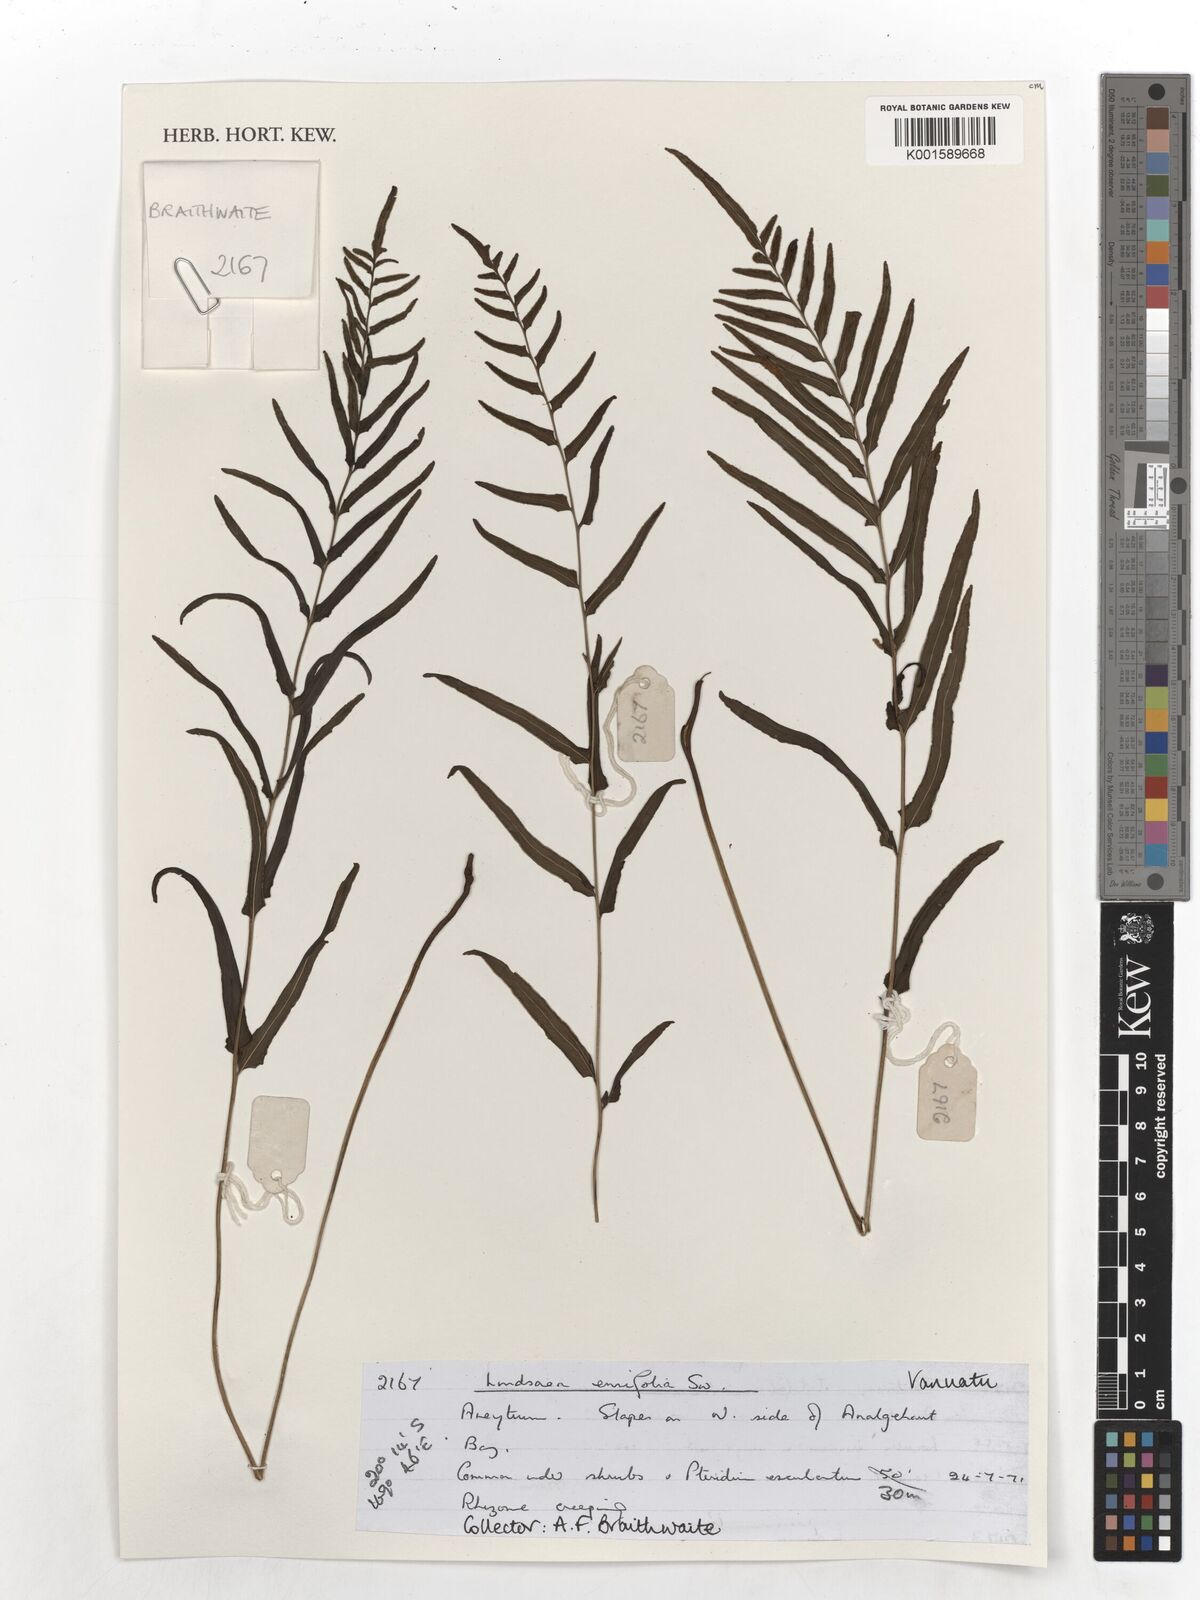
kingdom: Plantae
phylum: Tracheophyta
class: Polypodiopsida
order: Polypodiales
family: Lindsaeaceae
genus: Lindsaea
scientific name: Lindsaea ensifolia
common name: Graceful necklace fern
